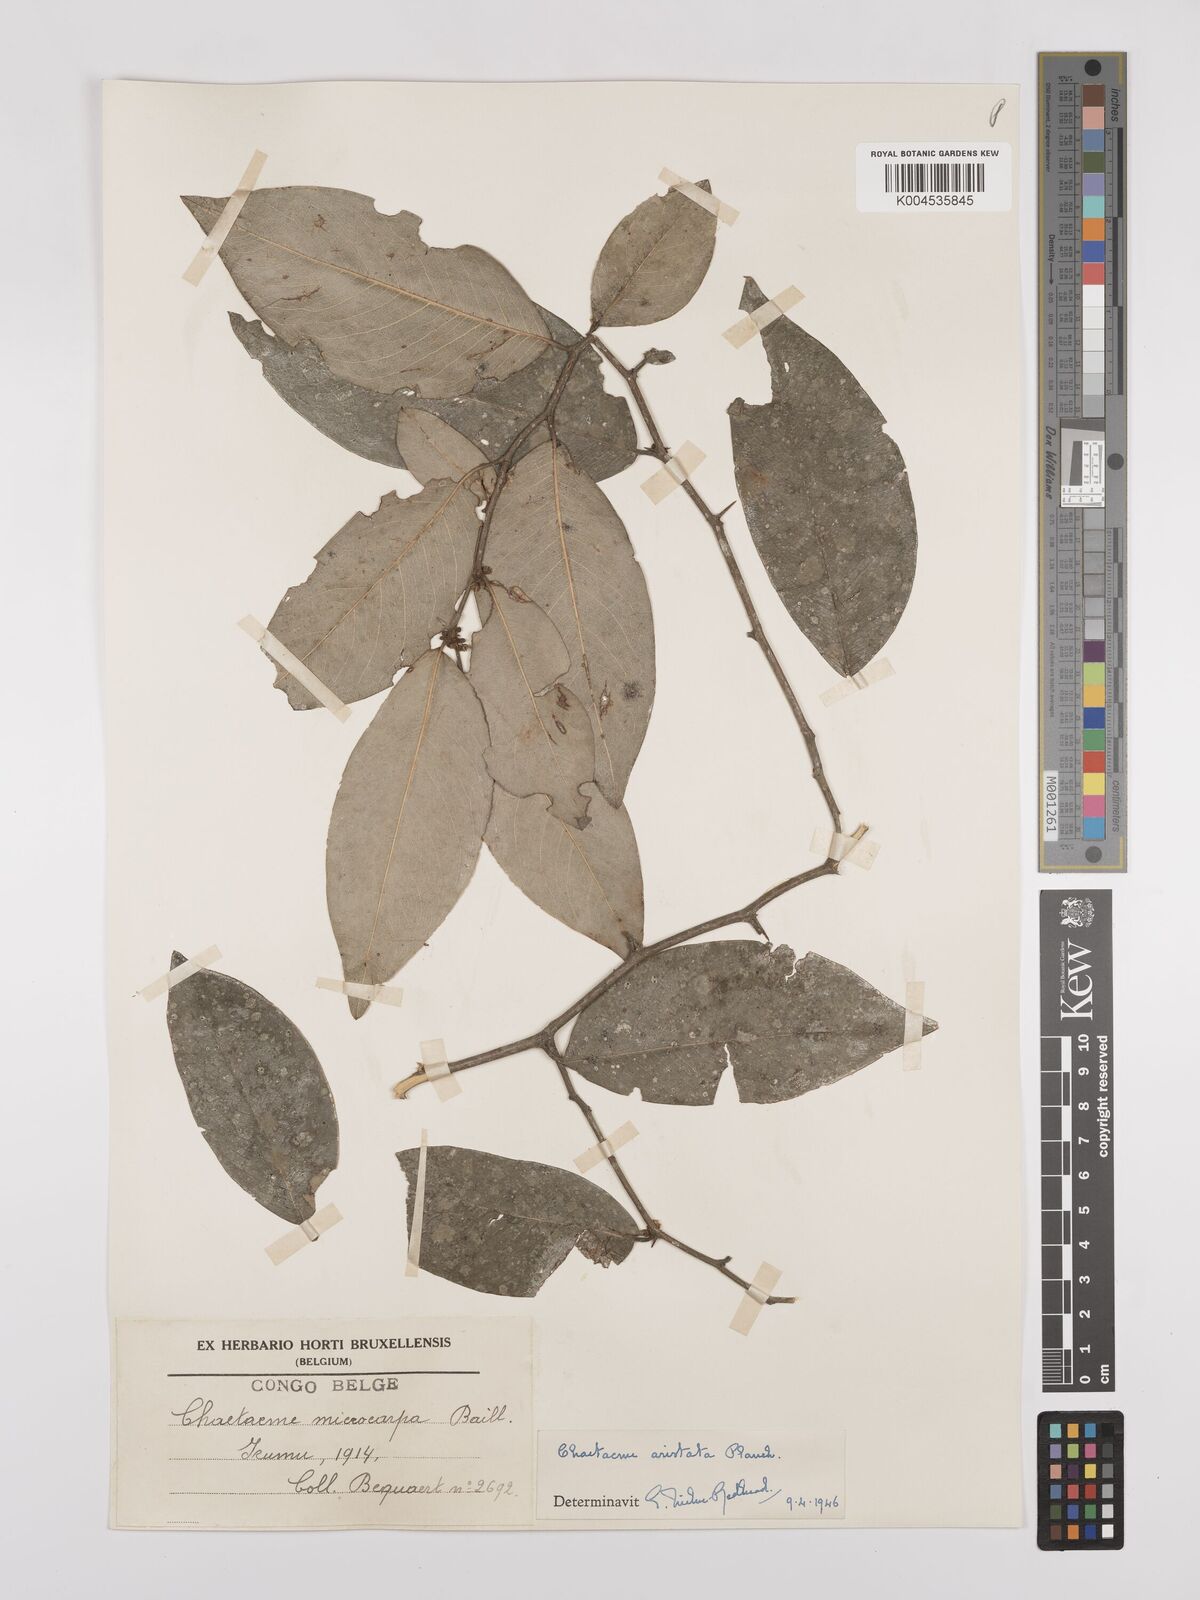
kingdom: Plantae
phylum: Tracheophyta
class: Magnoliopsida
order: Rosales
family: Cannabaceae
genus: Chaetachme
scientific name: Chaetachme aristata
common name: Thorny elm
